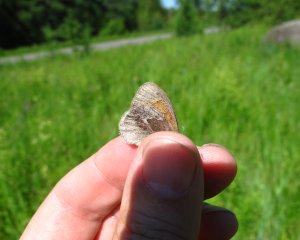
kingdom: Animalia
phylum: Arthropoda
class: Insecta
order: Lepidoptera
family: Nymphalidae
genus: Coenonympha
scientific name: Coenonympha tullia
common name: Large Heath
